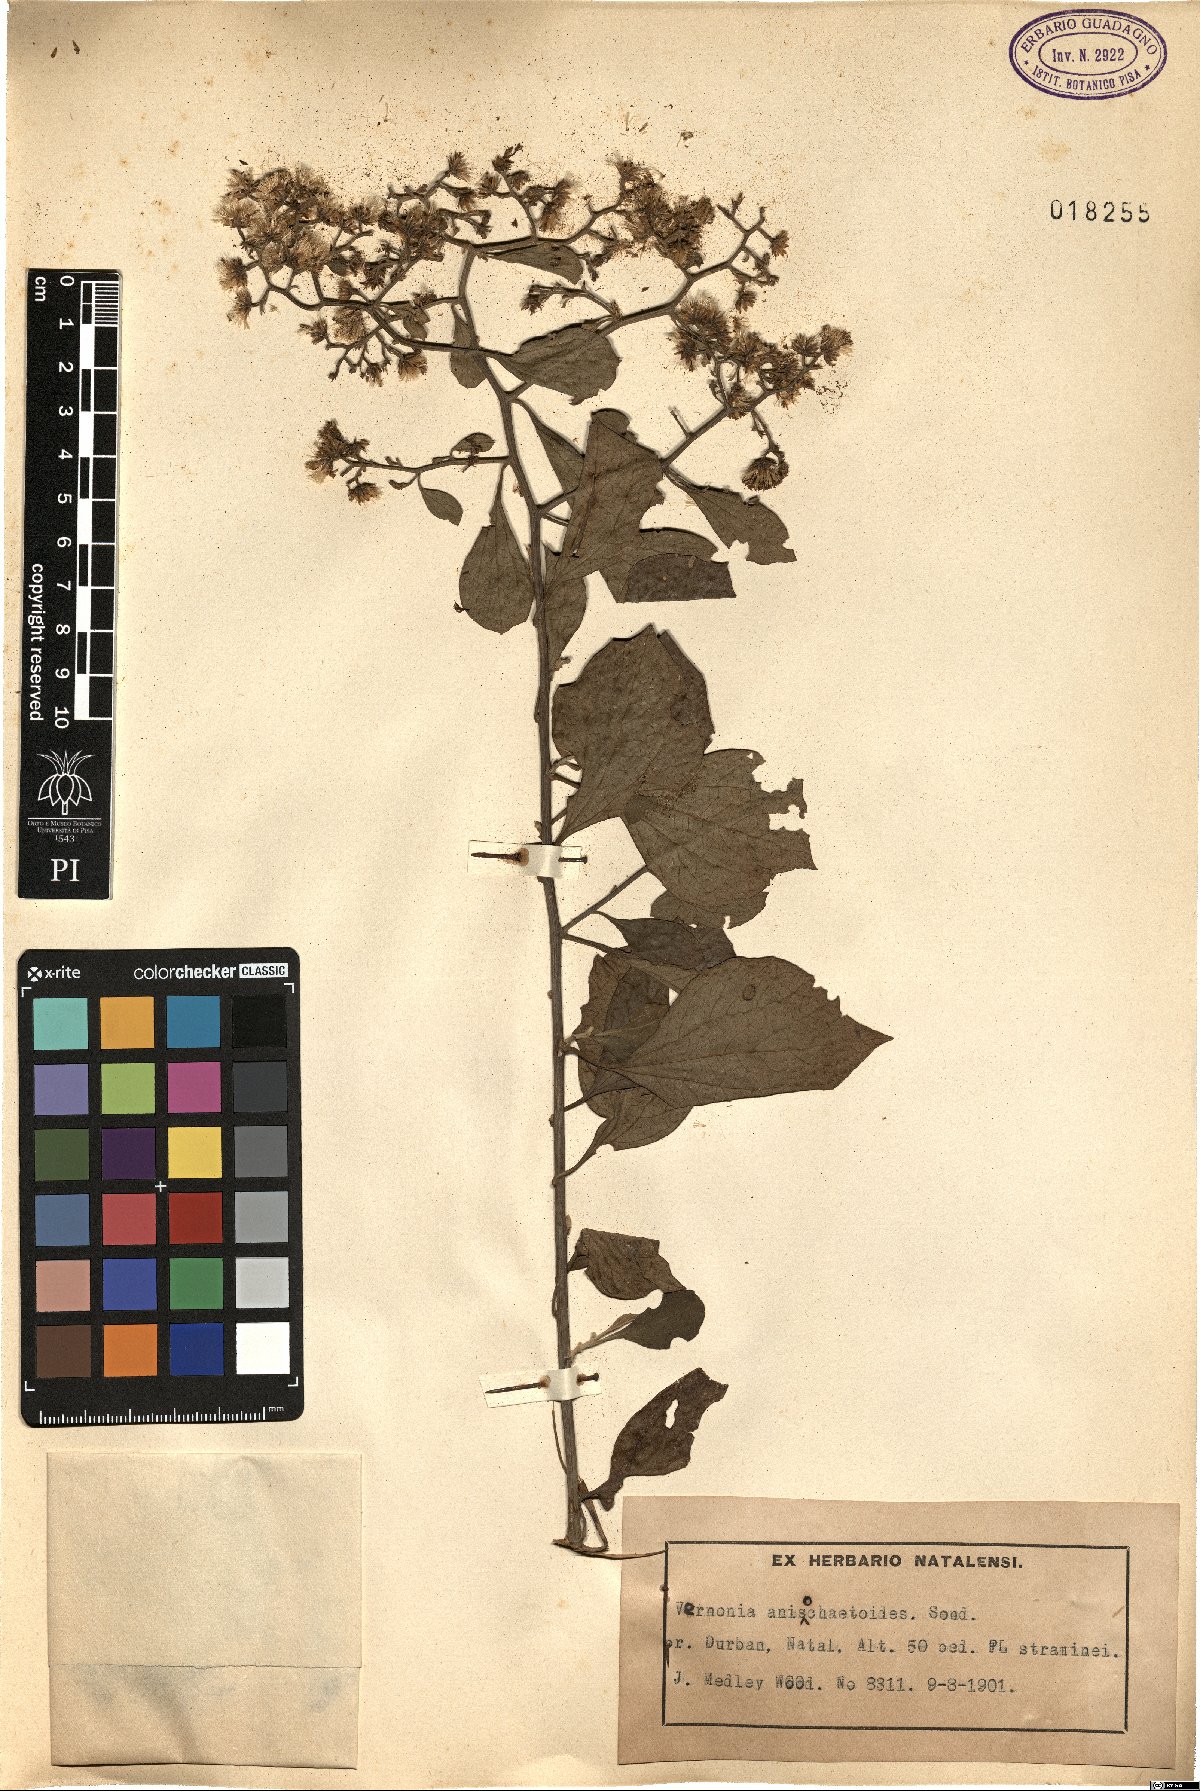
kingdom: Plantae
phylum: Tracheophyta
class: Magnoliopsida
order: Asterales
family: Asteraceae
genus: Distephanus
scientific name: Distephanus anisochaetoides
